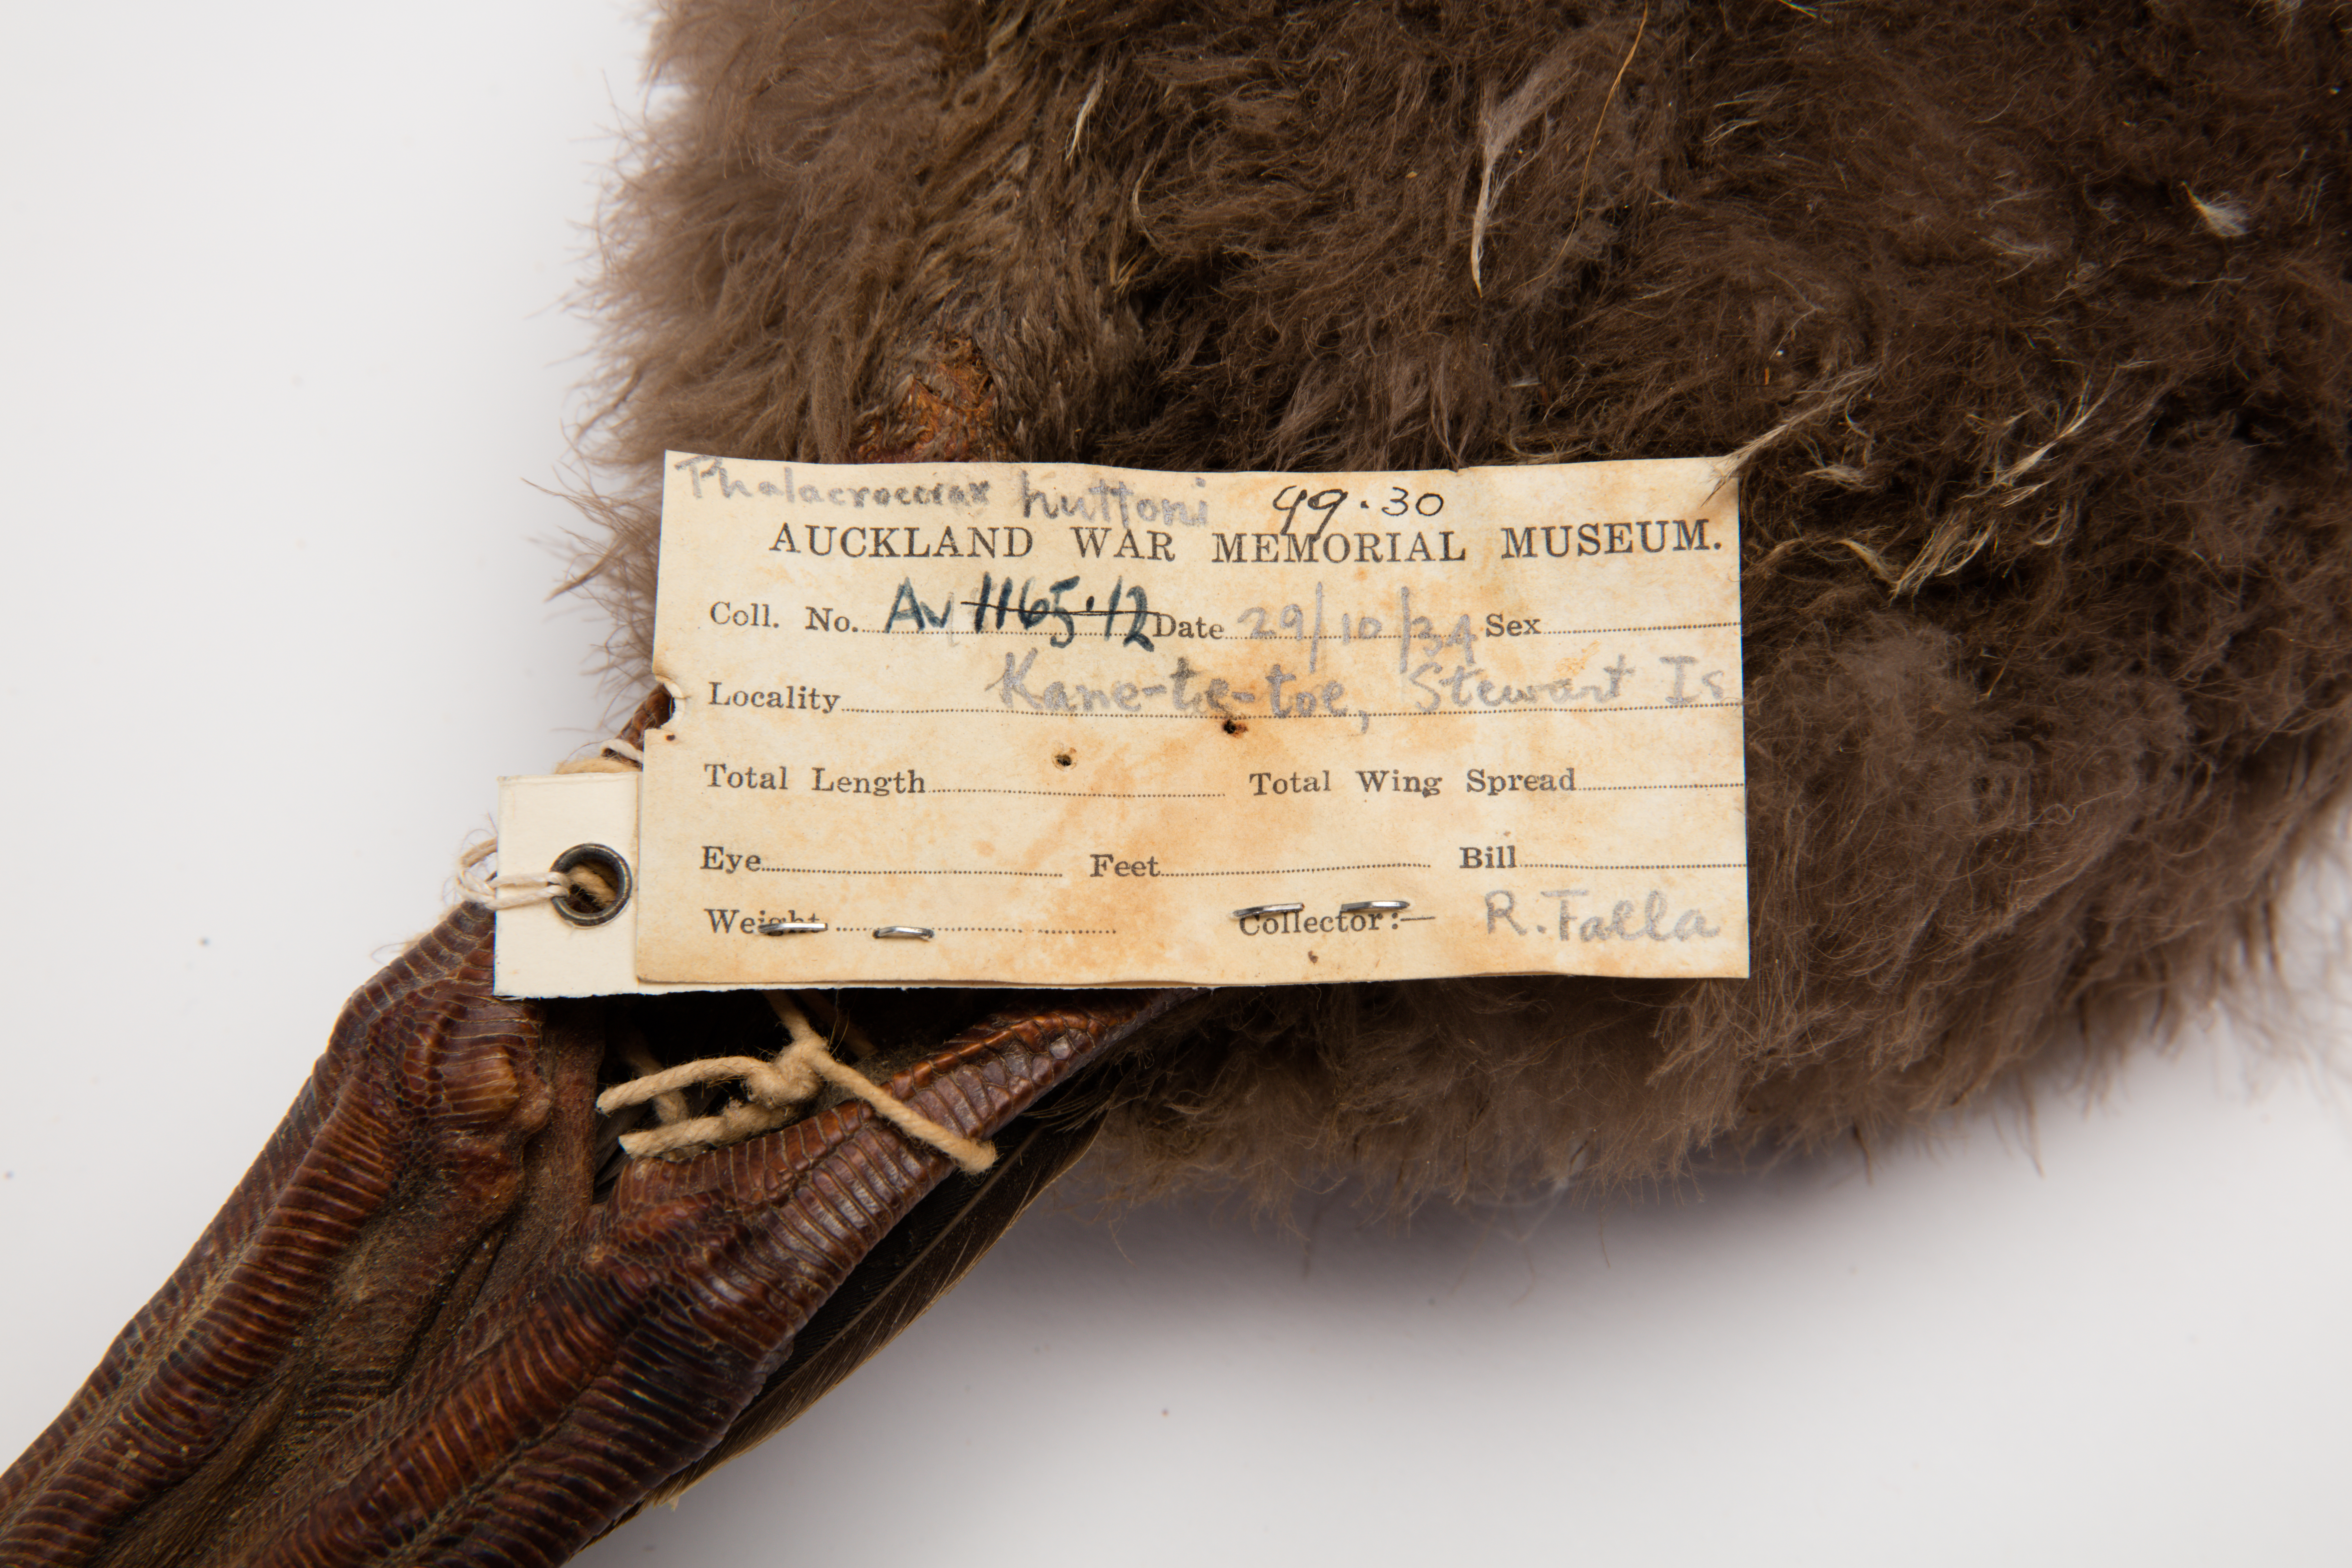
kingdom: Animalia
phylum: Chordata
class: Aves
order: Suliformes
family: Phalacrocoracidae
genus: Leucocarbo
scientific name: Leucocarbo chalconotus
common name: Stewart shag
